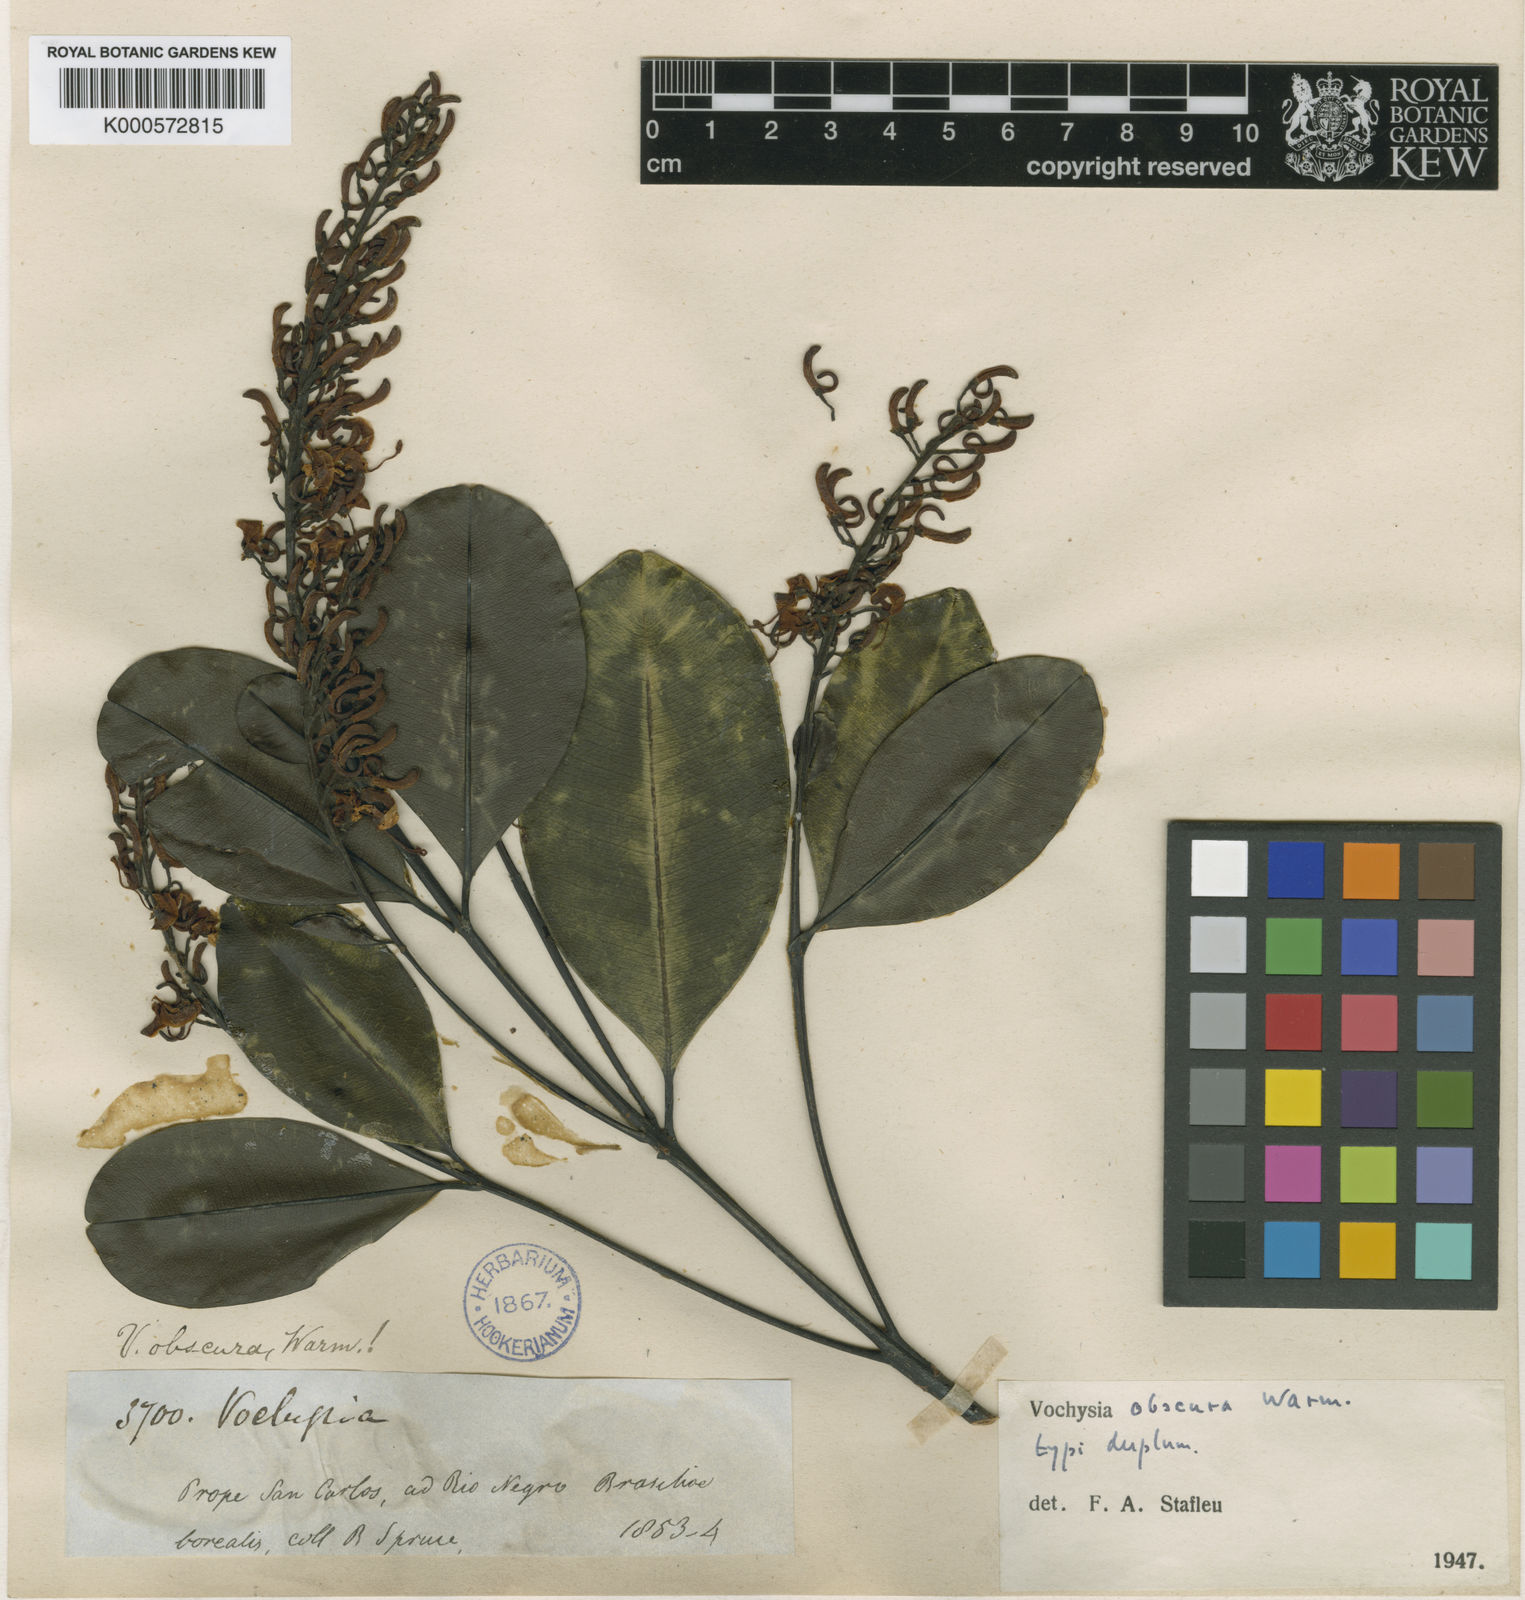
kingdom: Plantae
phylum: Tracheophyta
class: Magnoliopsida
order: Myrtales
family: Vochysiaceae
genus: Vochysia
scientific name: Vochysia obscura
